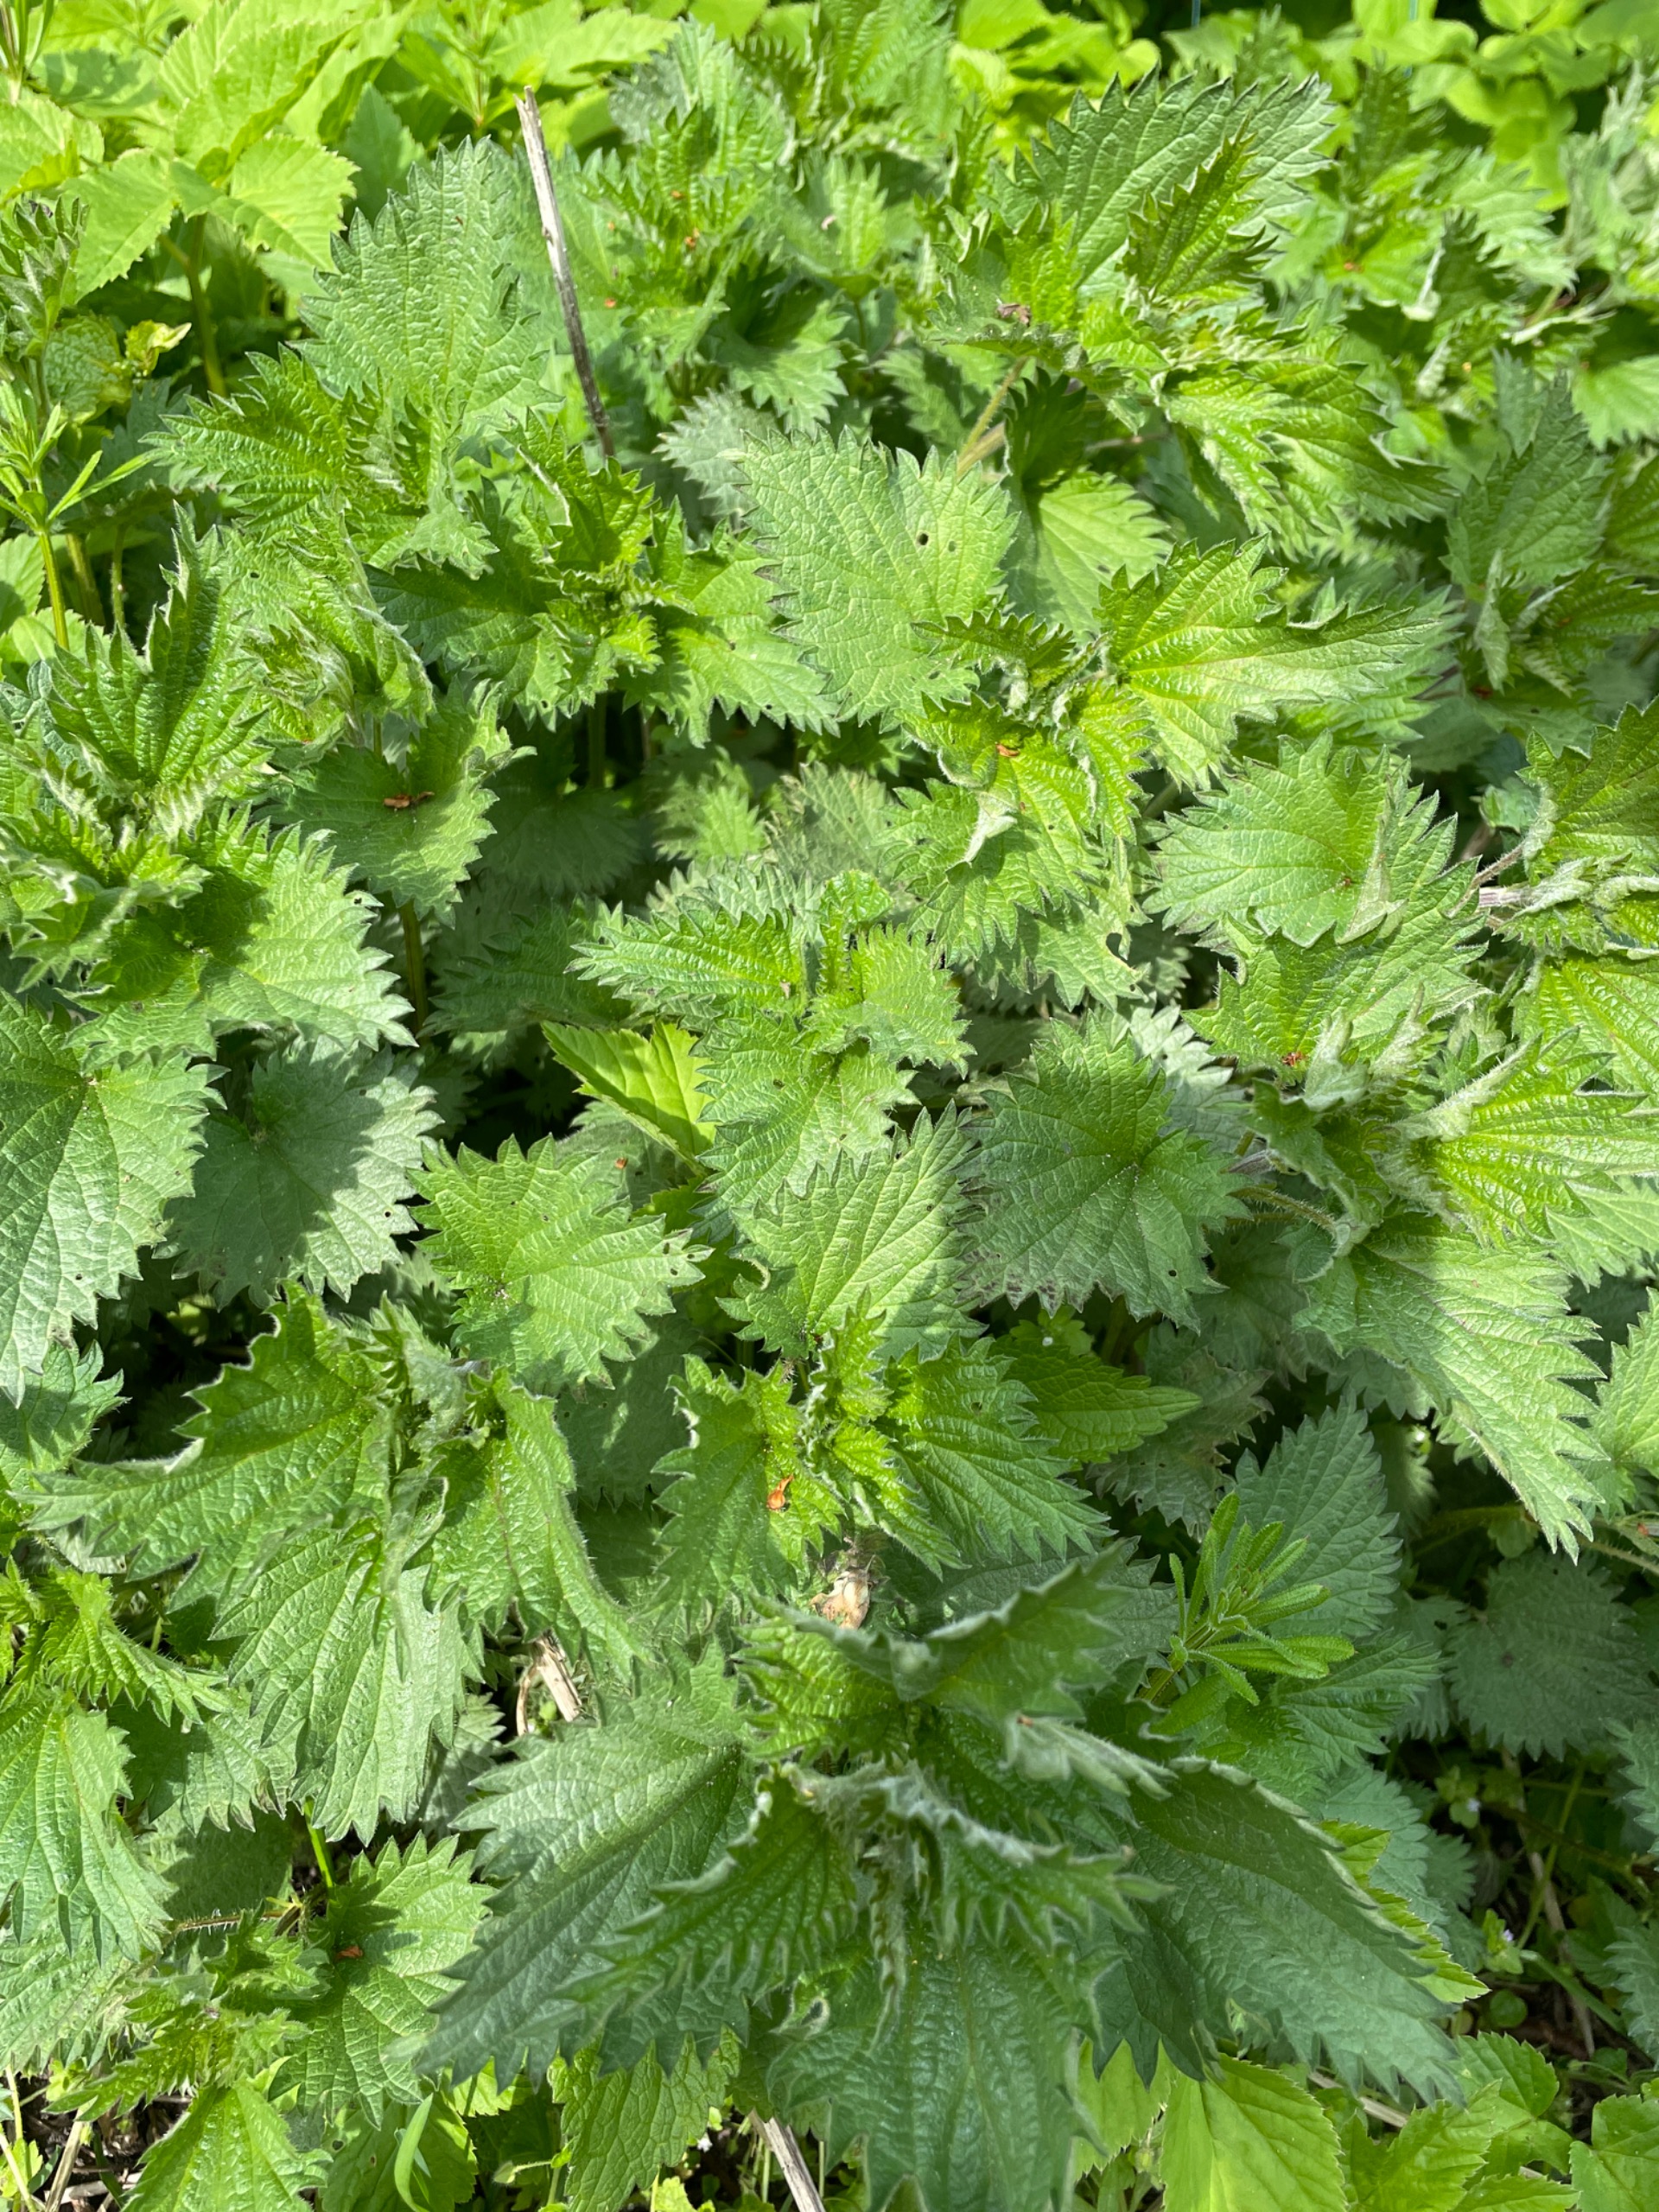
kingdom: Plantae
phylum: Tracheophyta
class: Magnoliopsida
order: Rosales
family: Urticaceae
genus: Urtica
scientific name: Urtica dioica
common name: Stor nælde
